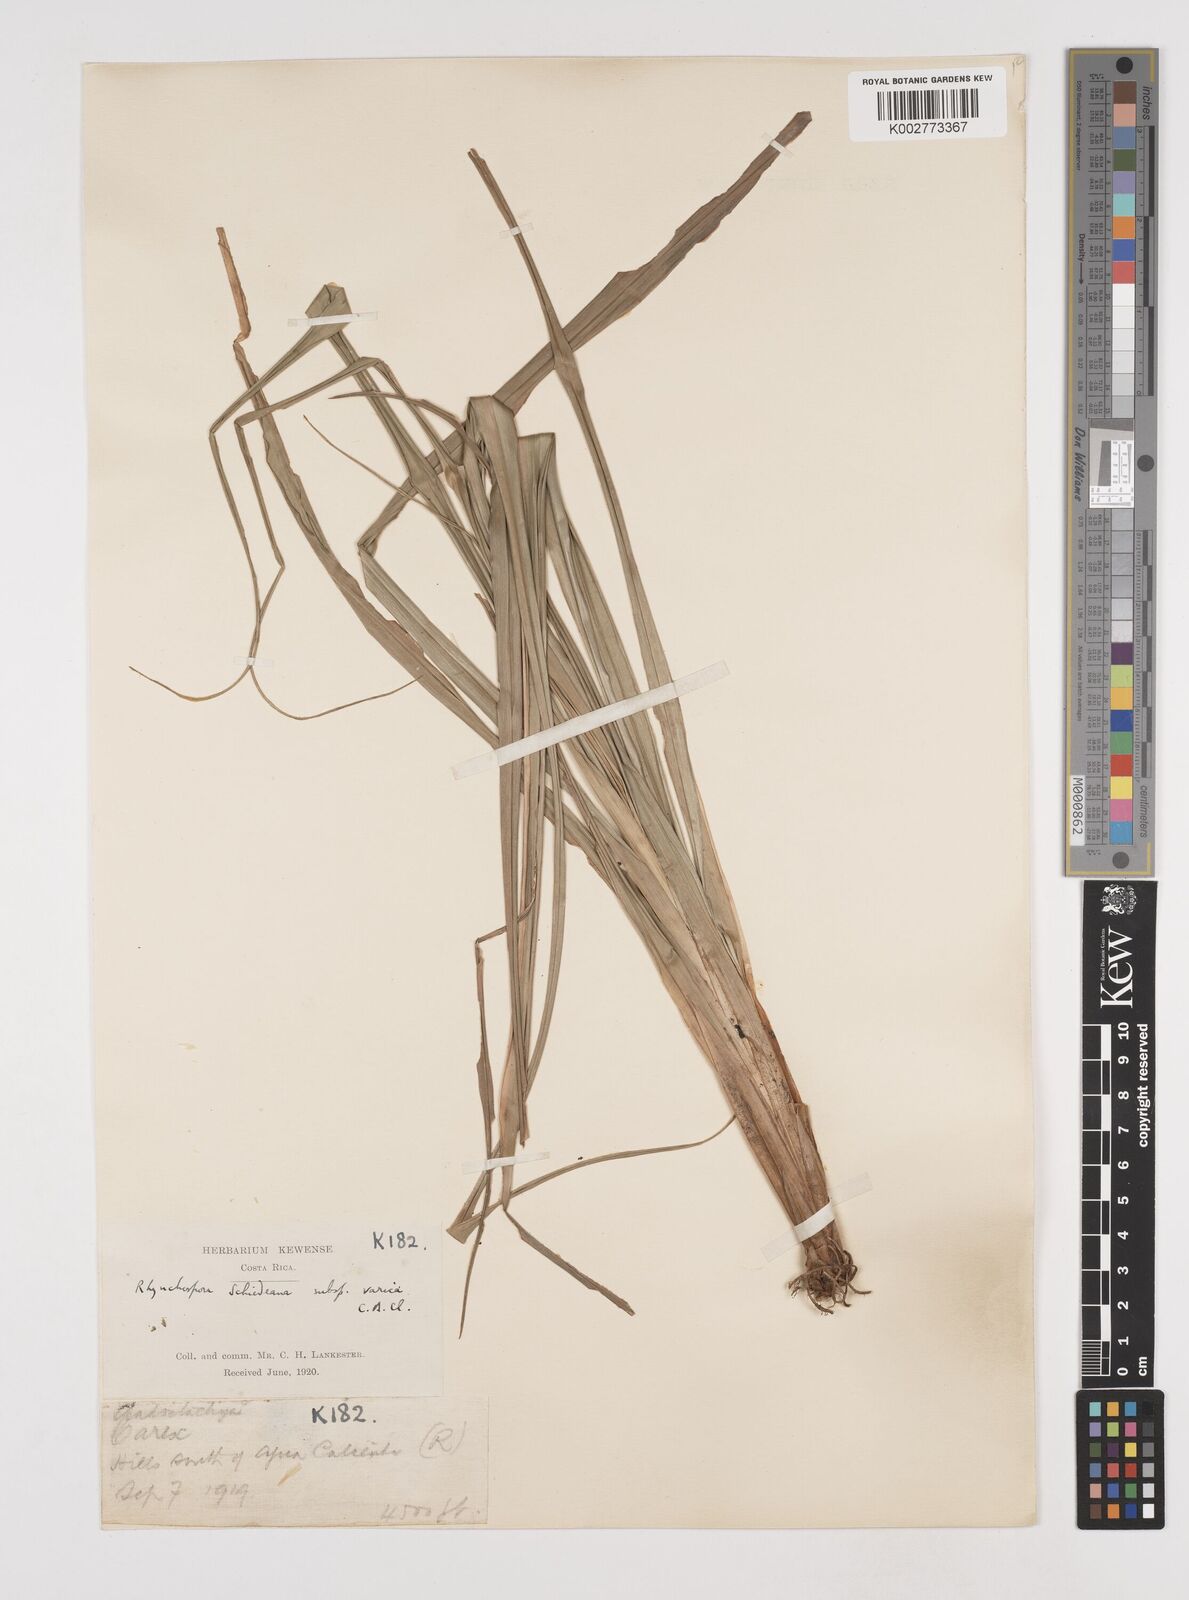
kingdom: Plantae
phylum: Tracheophyta
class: Liliopsida
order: Poales
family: Cyperaceae
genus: Rhynchospora
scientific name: Rhynchospora schiedeana
